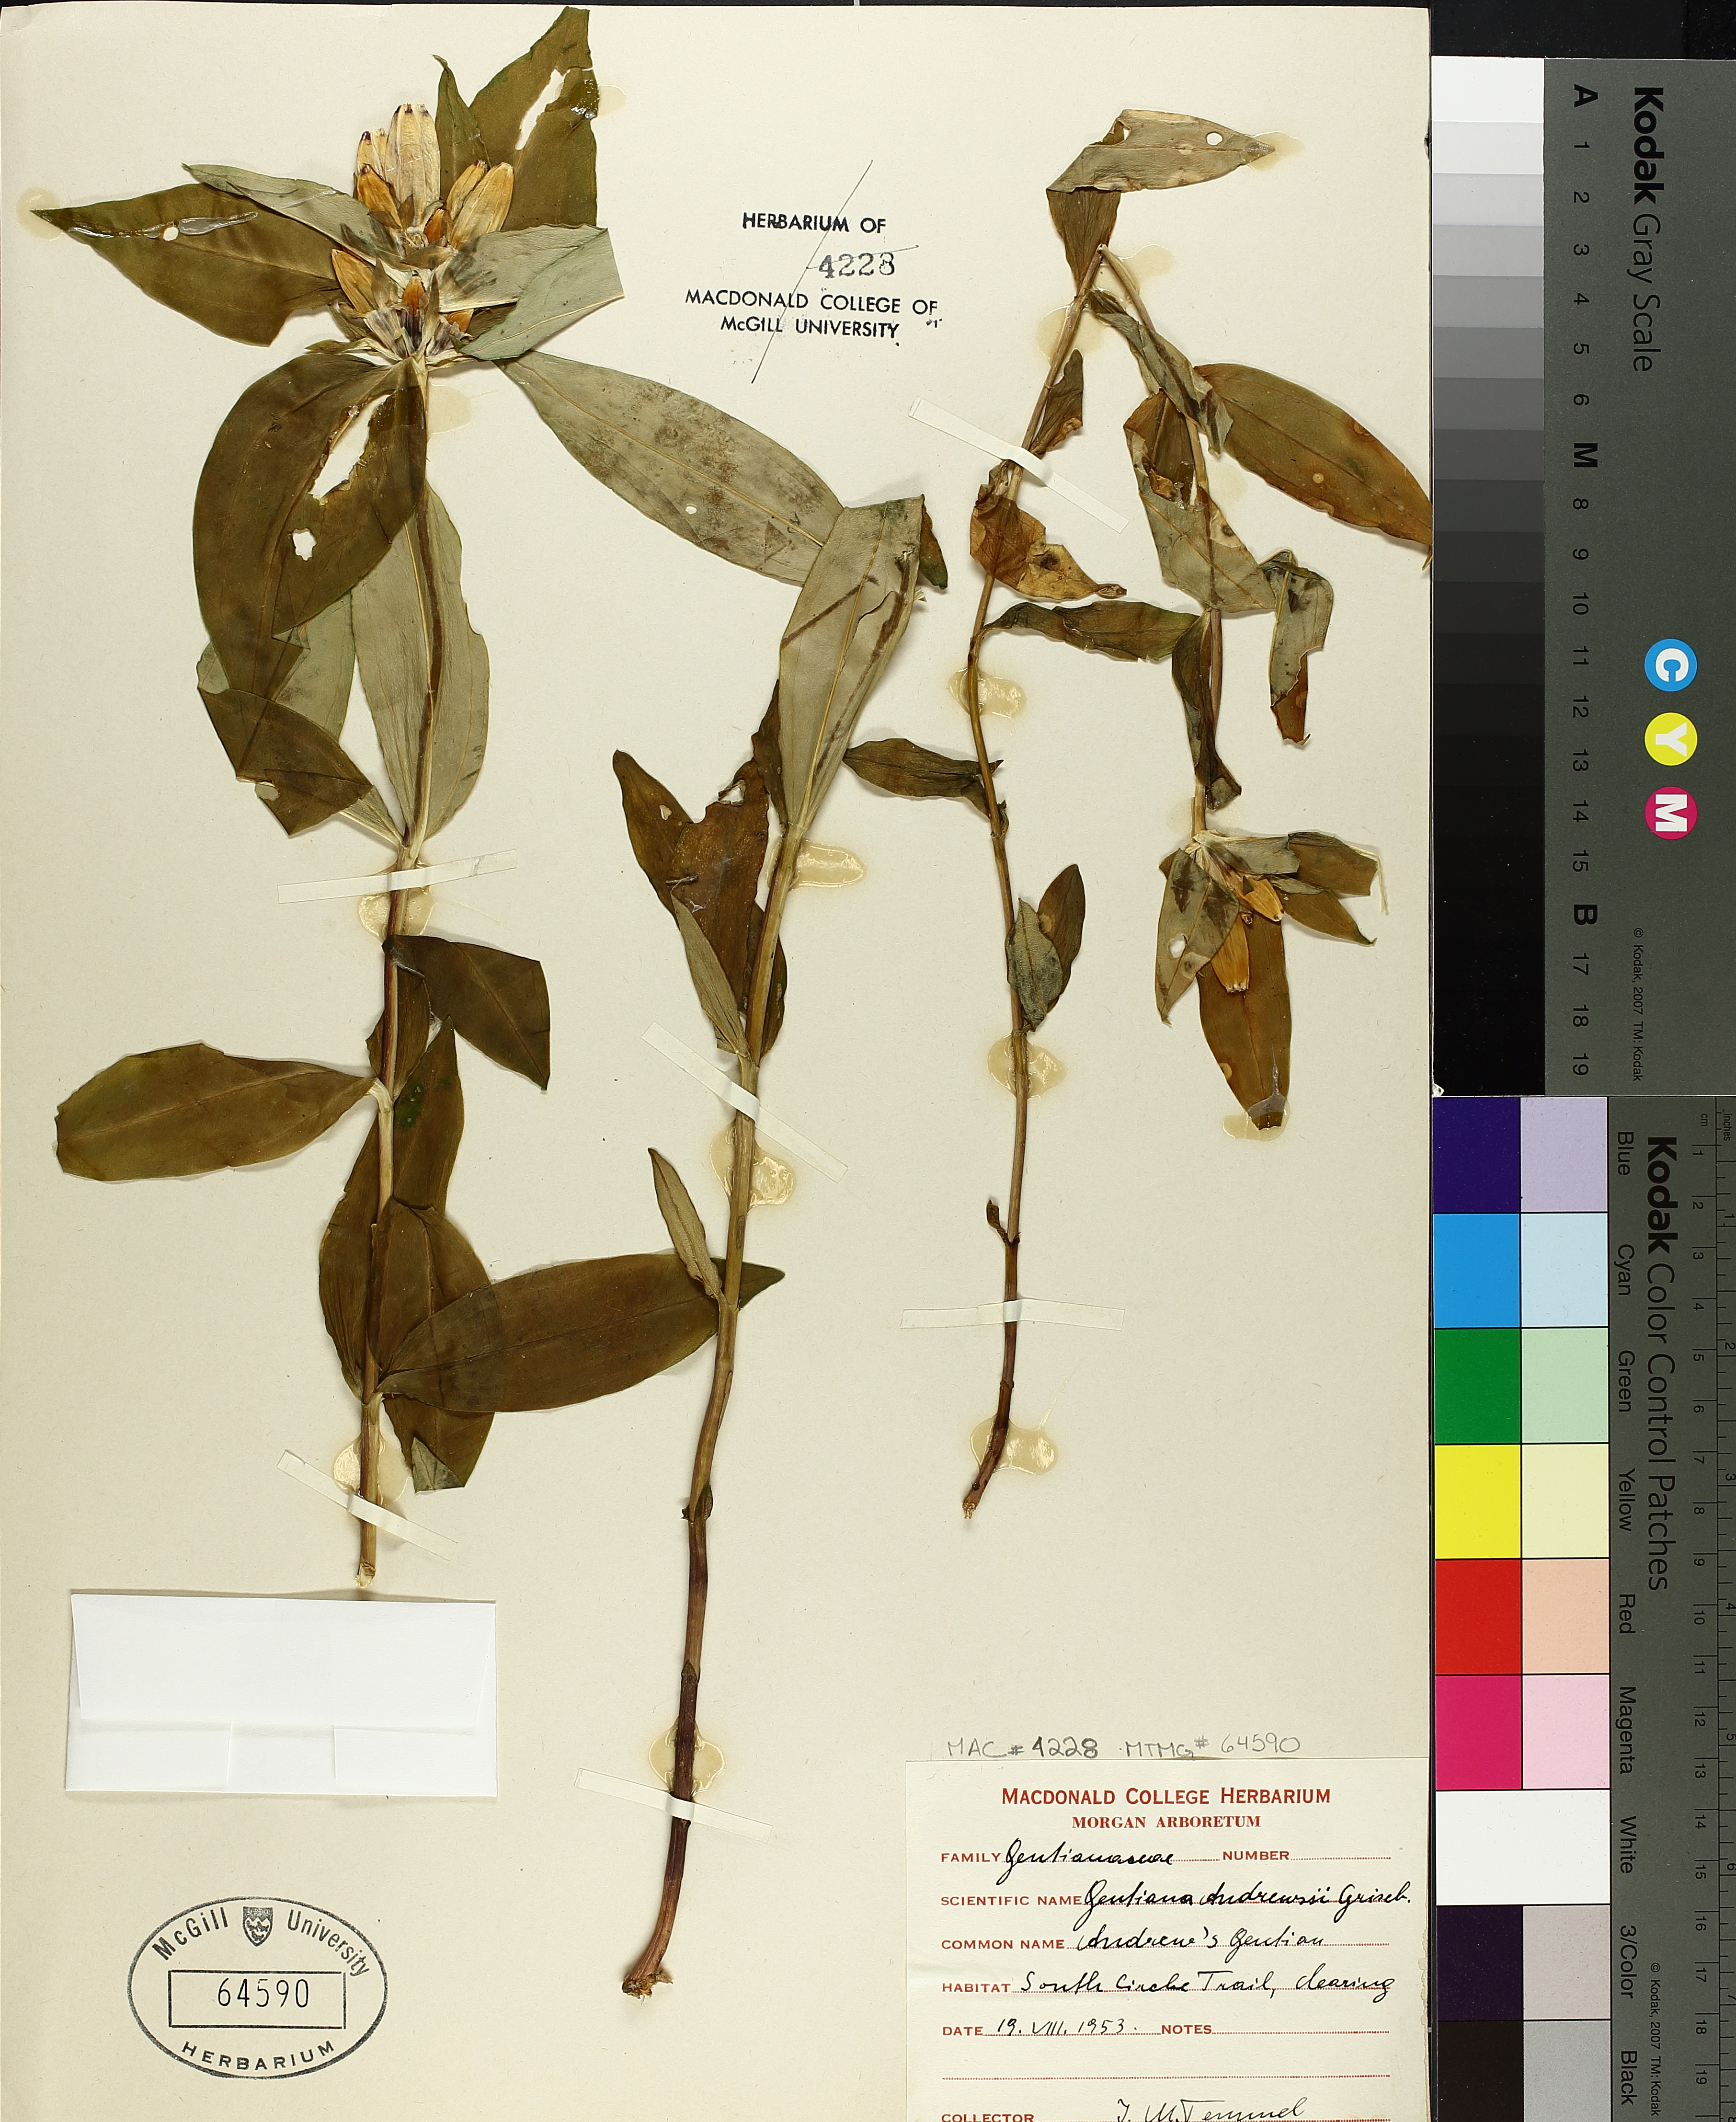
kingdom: Plantae
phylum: Tracheophyta
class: Magnoliopsida
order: Gentianales
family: Gentianaceae
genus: Gentiana
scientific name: Gentiana andrewsii
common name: Bottle gentian
